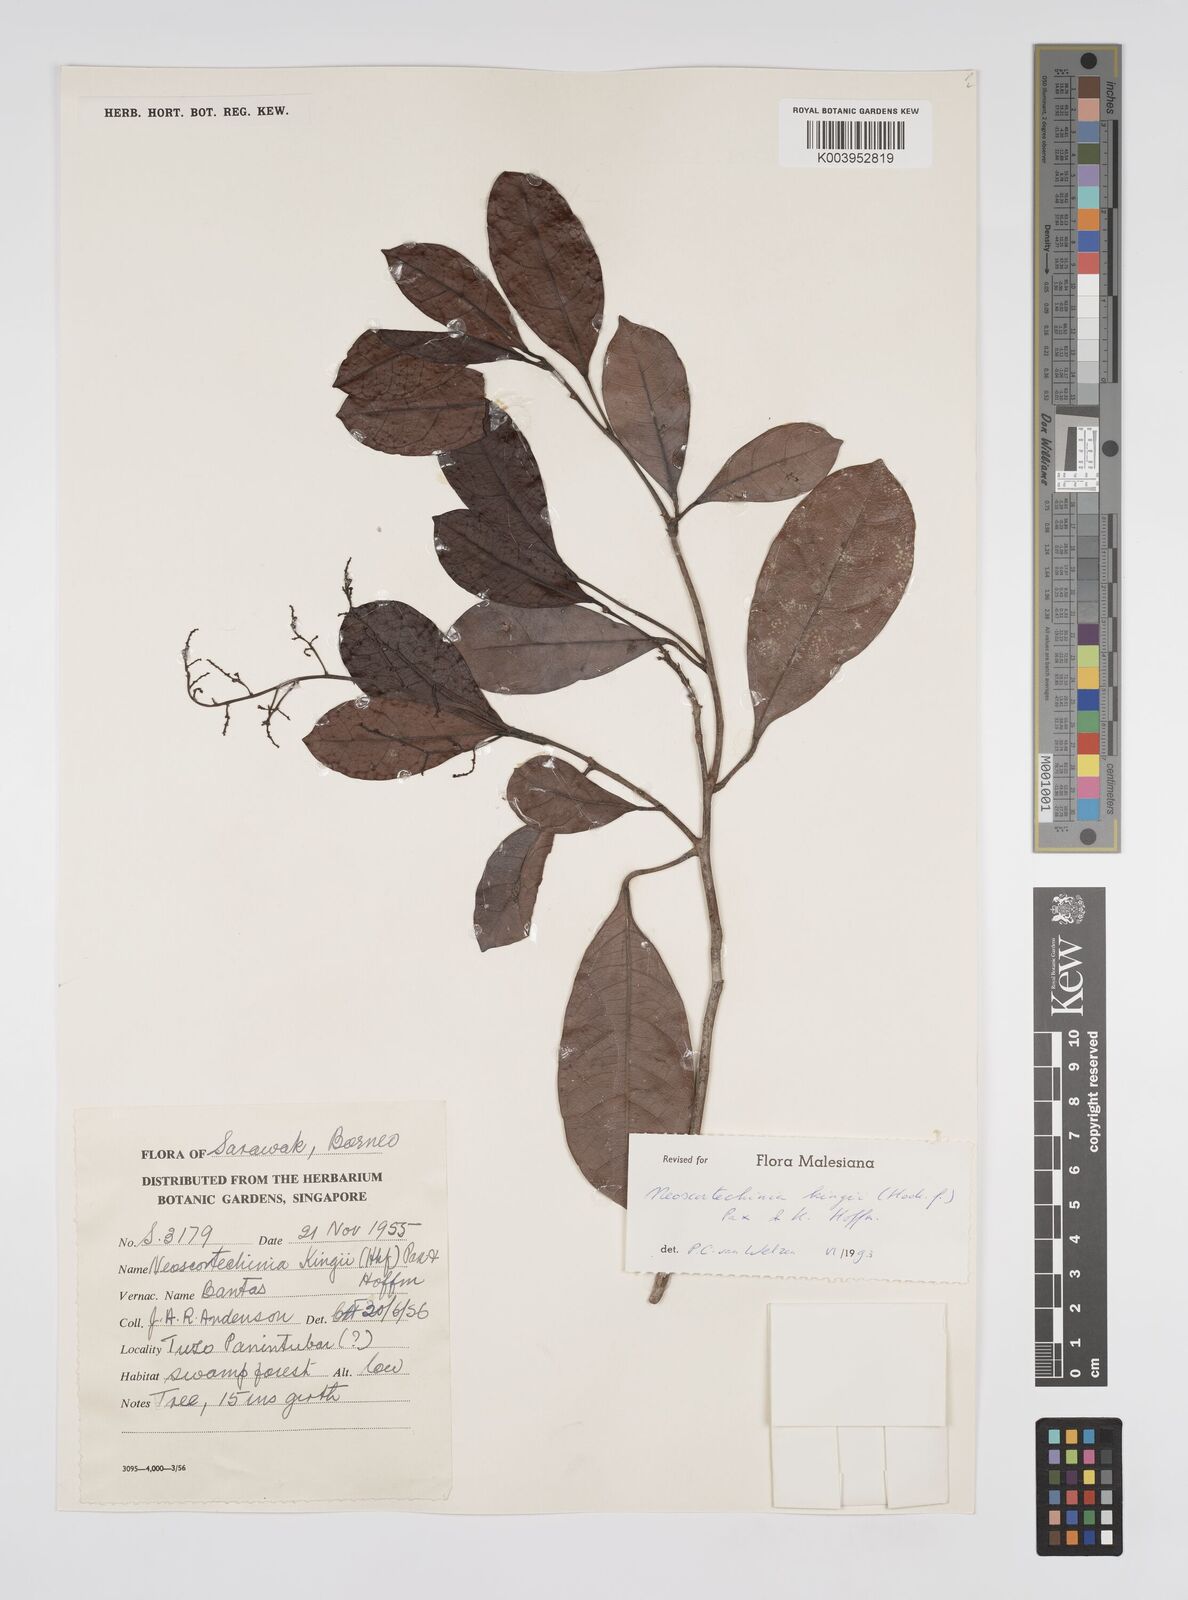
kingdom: Plantae
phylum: Tracheophyta
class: Magnoliopsida
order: Malpighiales
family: Euphorbiaceae
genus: Neoscortechinia
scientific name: Neoscortechinia kingii
